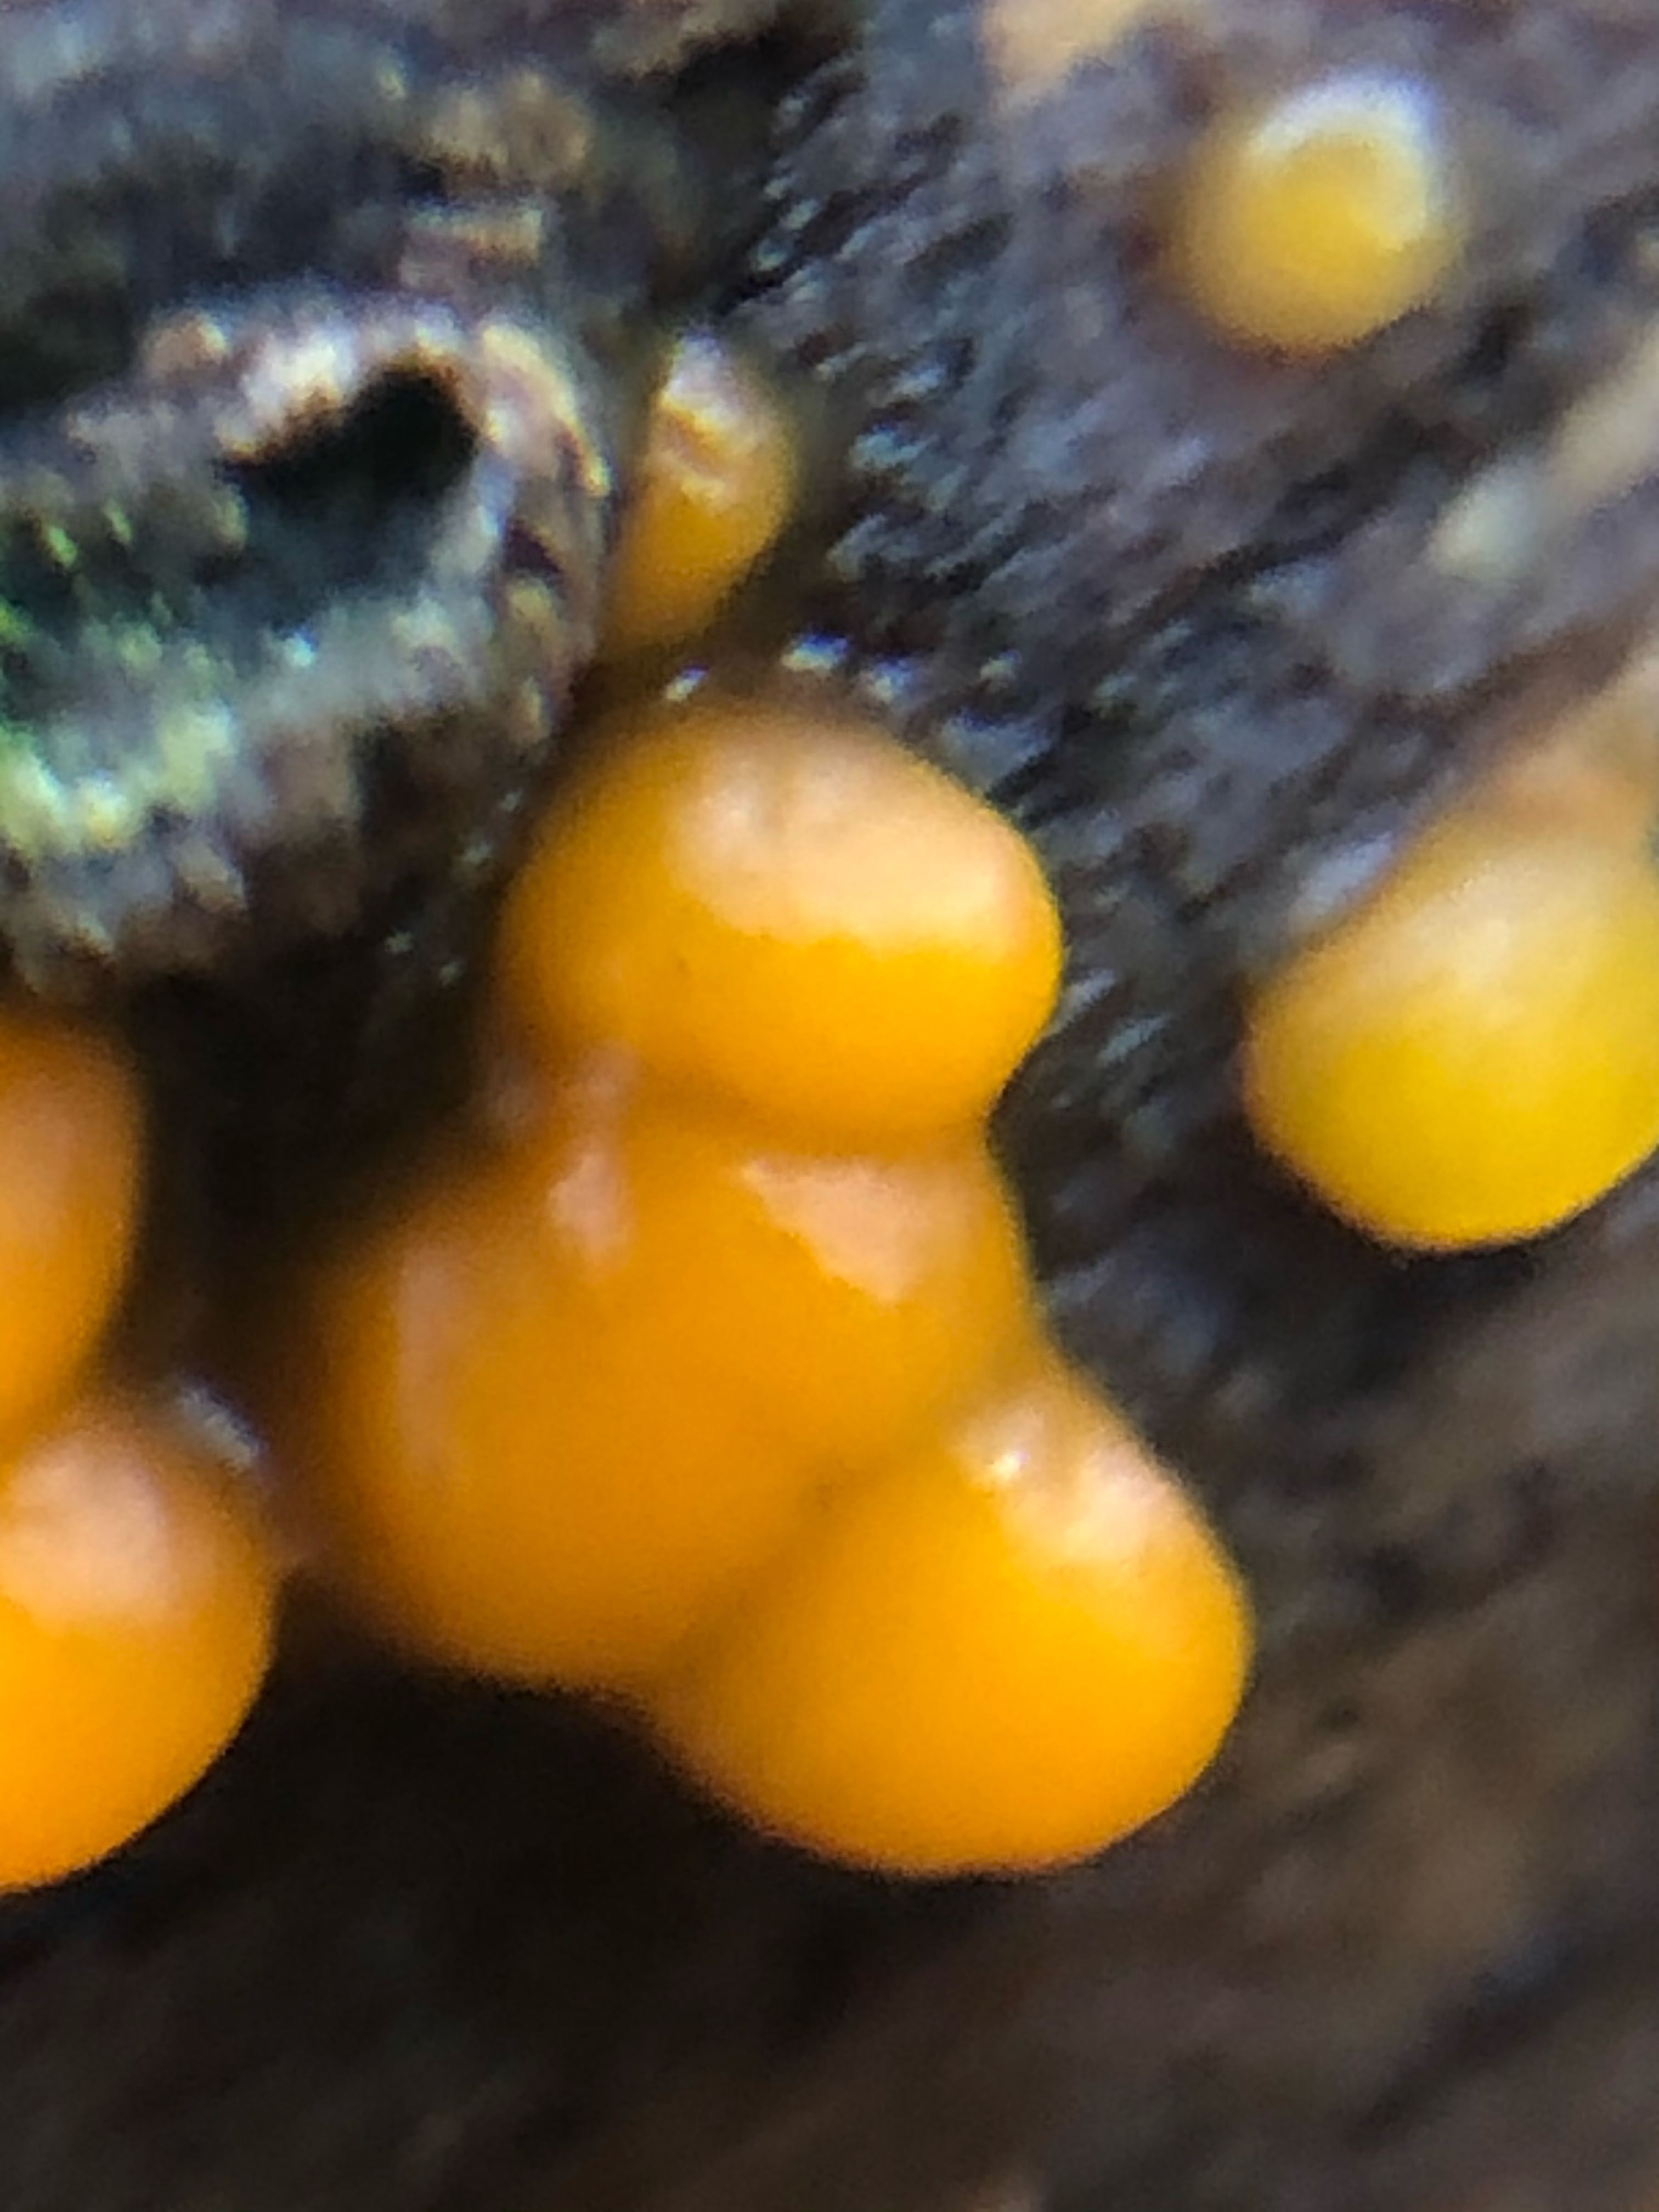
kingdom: Fungi
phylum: Basidiomycota
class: Dacrymycetes
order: Dacrymycetales
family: Dacrymycetaceae
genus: Dacrymyces
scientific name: Dacrymyces stillatus
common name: almindelig tåresvamp
